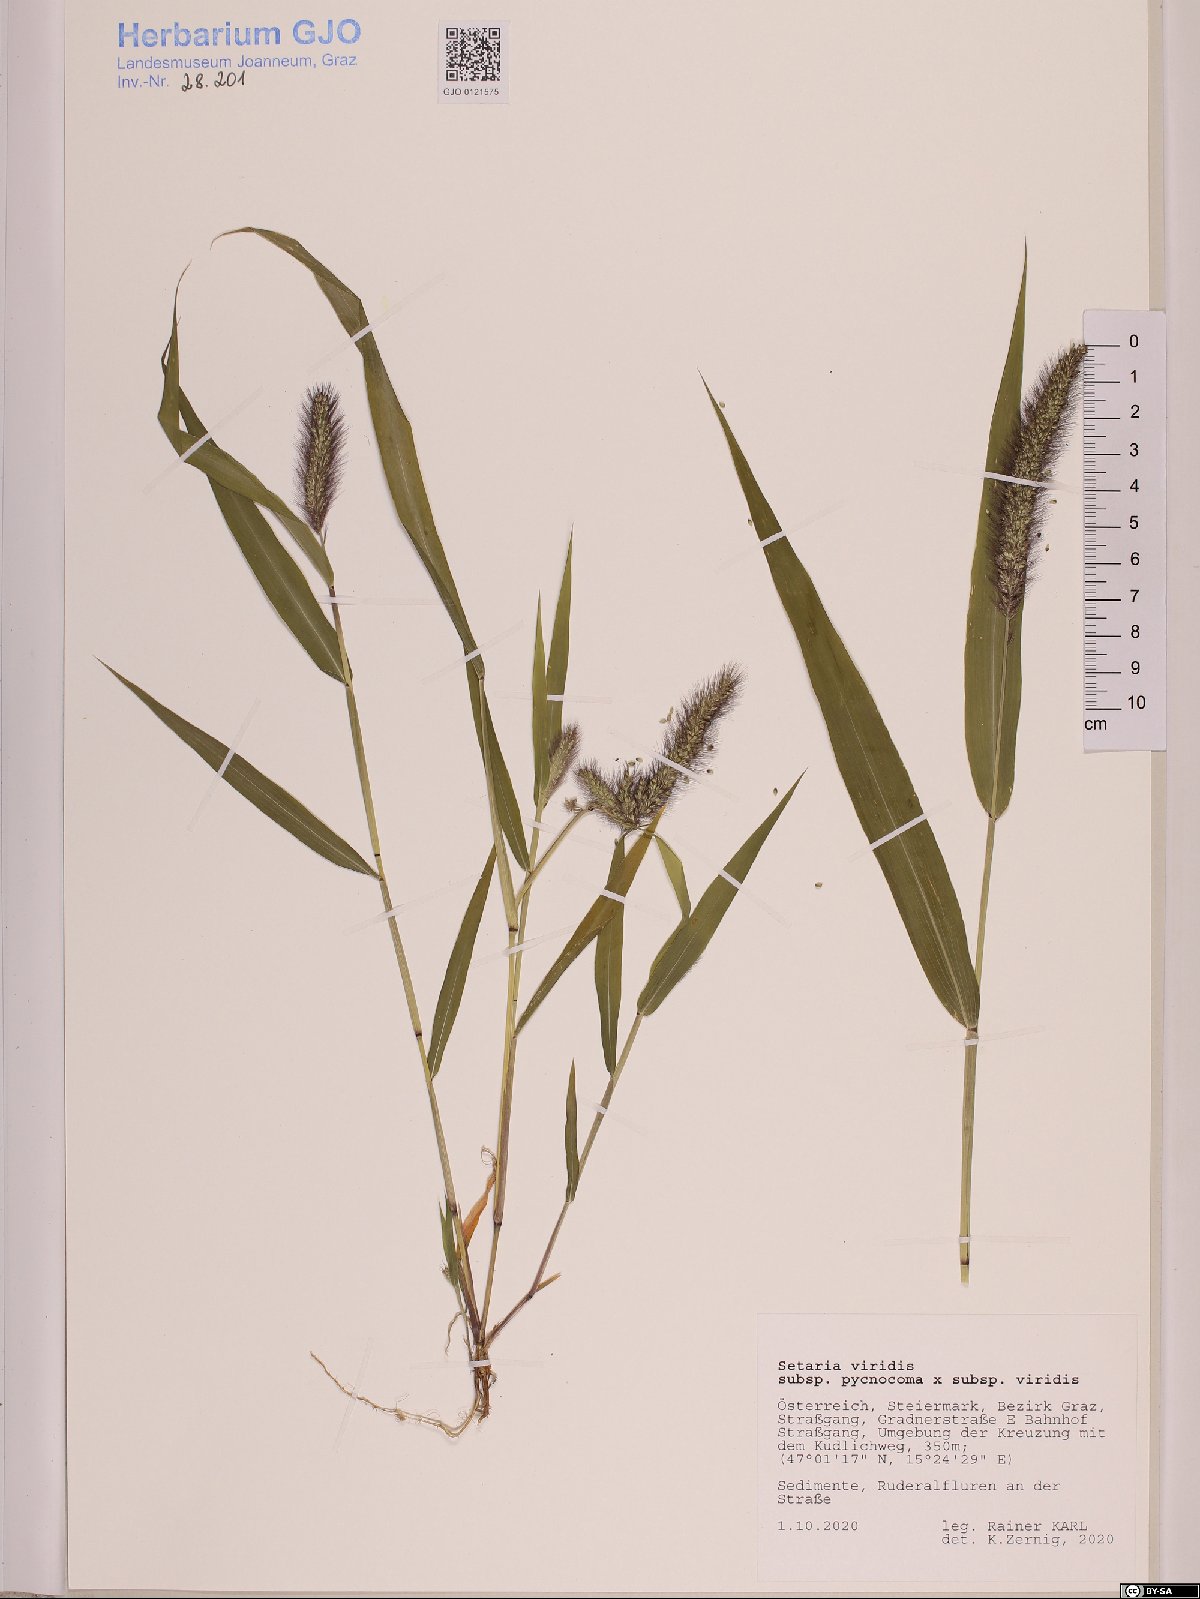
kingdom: Plantae
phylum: Tracheophyta
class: Liliopsida
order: Poales
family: Poaceae
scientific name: Poaceae
